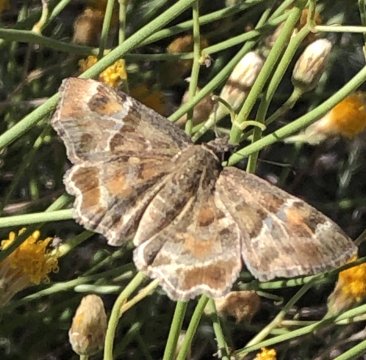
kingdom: Animalia
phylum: Arthropoda
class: Insecta
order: Lepidoptera
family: Hesperiidae
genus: Systasea
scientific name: Systasea zampa
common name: Arizona Powdered-Skipper
